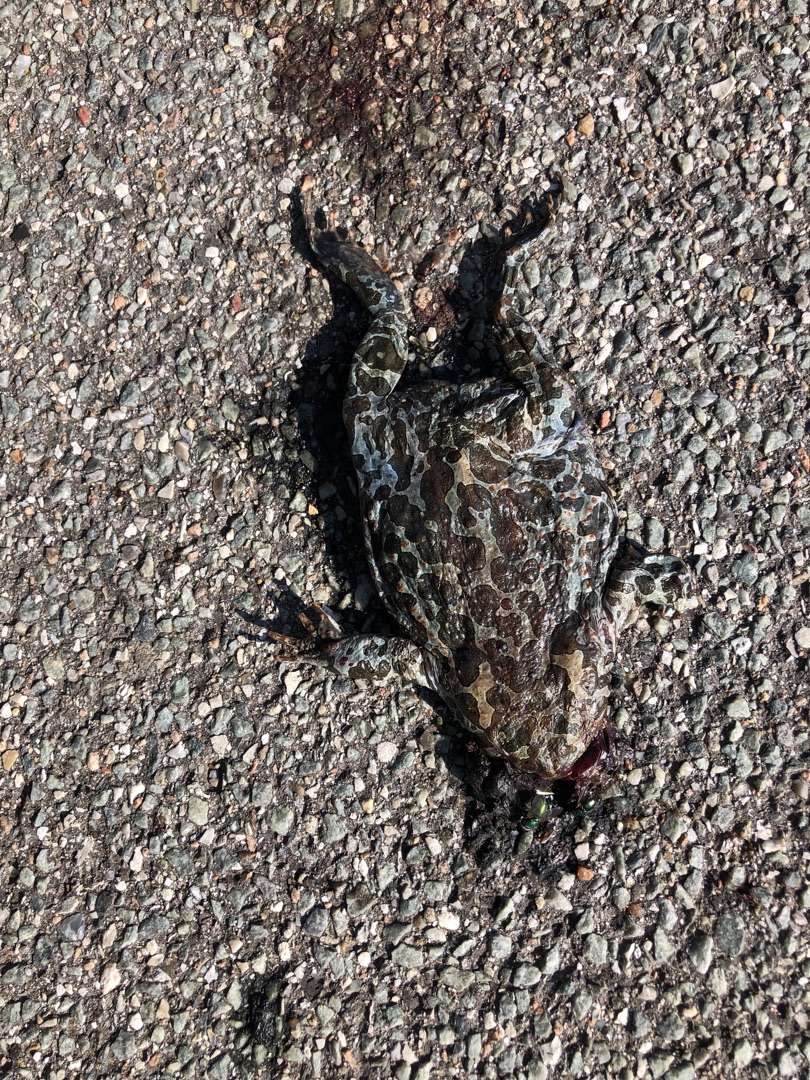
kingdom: Animalia
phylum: Chordata
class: Amphibia
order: Anura
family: Bufonidae
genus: Bufotes
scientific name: Bufotes viridis
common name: Grønbroget tudse
